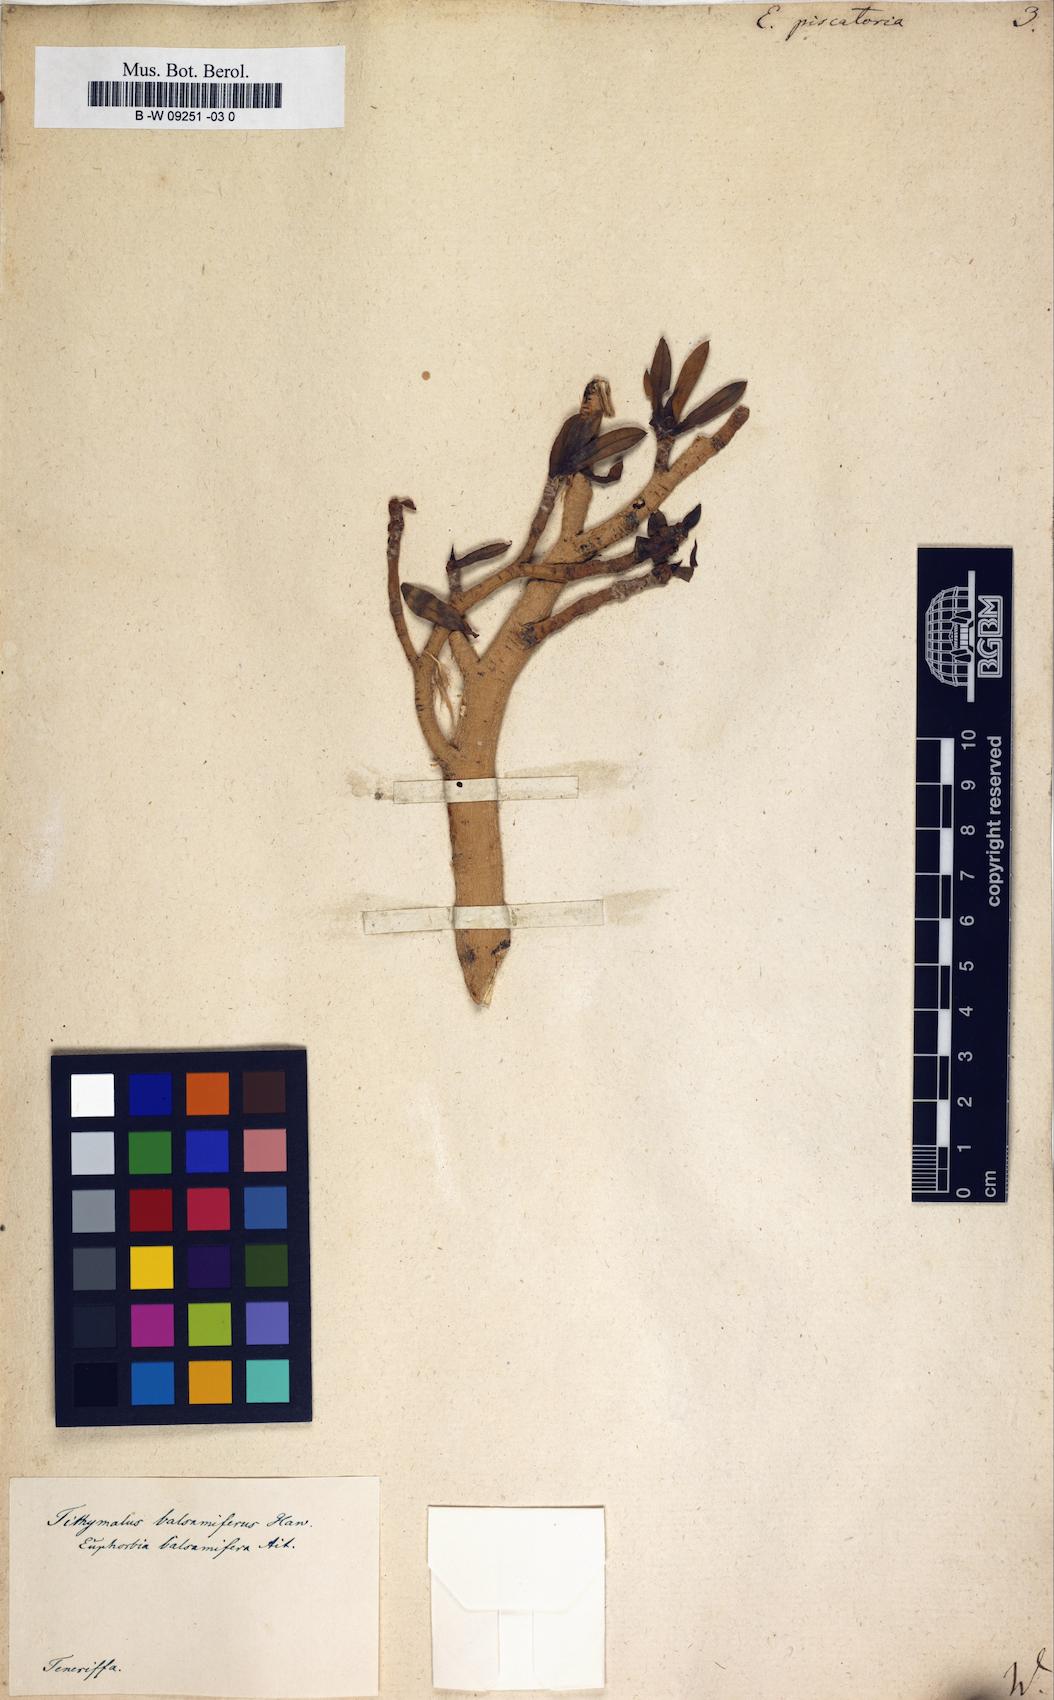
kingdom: Plantae
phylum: Tracheophyta
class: Magnoliopsida
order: Malpighiales
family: Euphorbiaceae
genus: Euphorbia
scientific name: Euphorbia piscatoria
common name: Fish-stunning spurge
